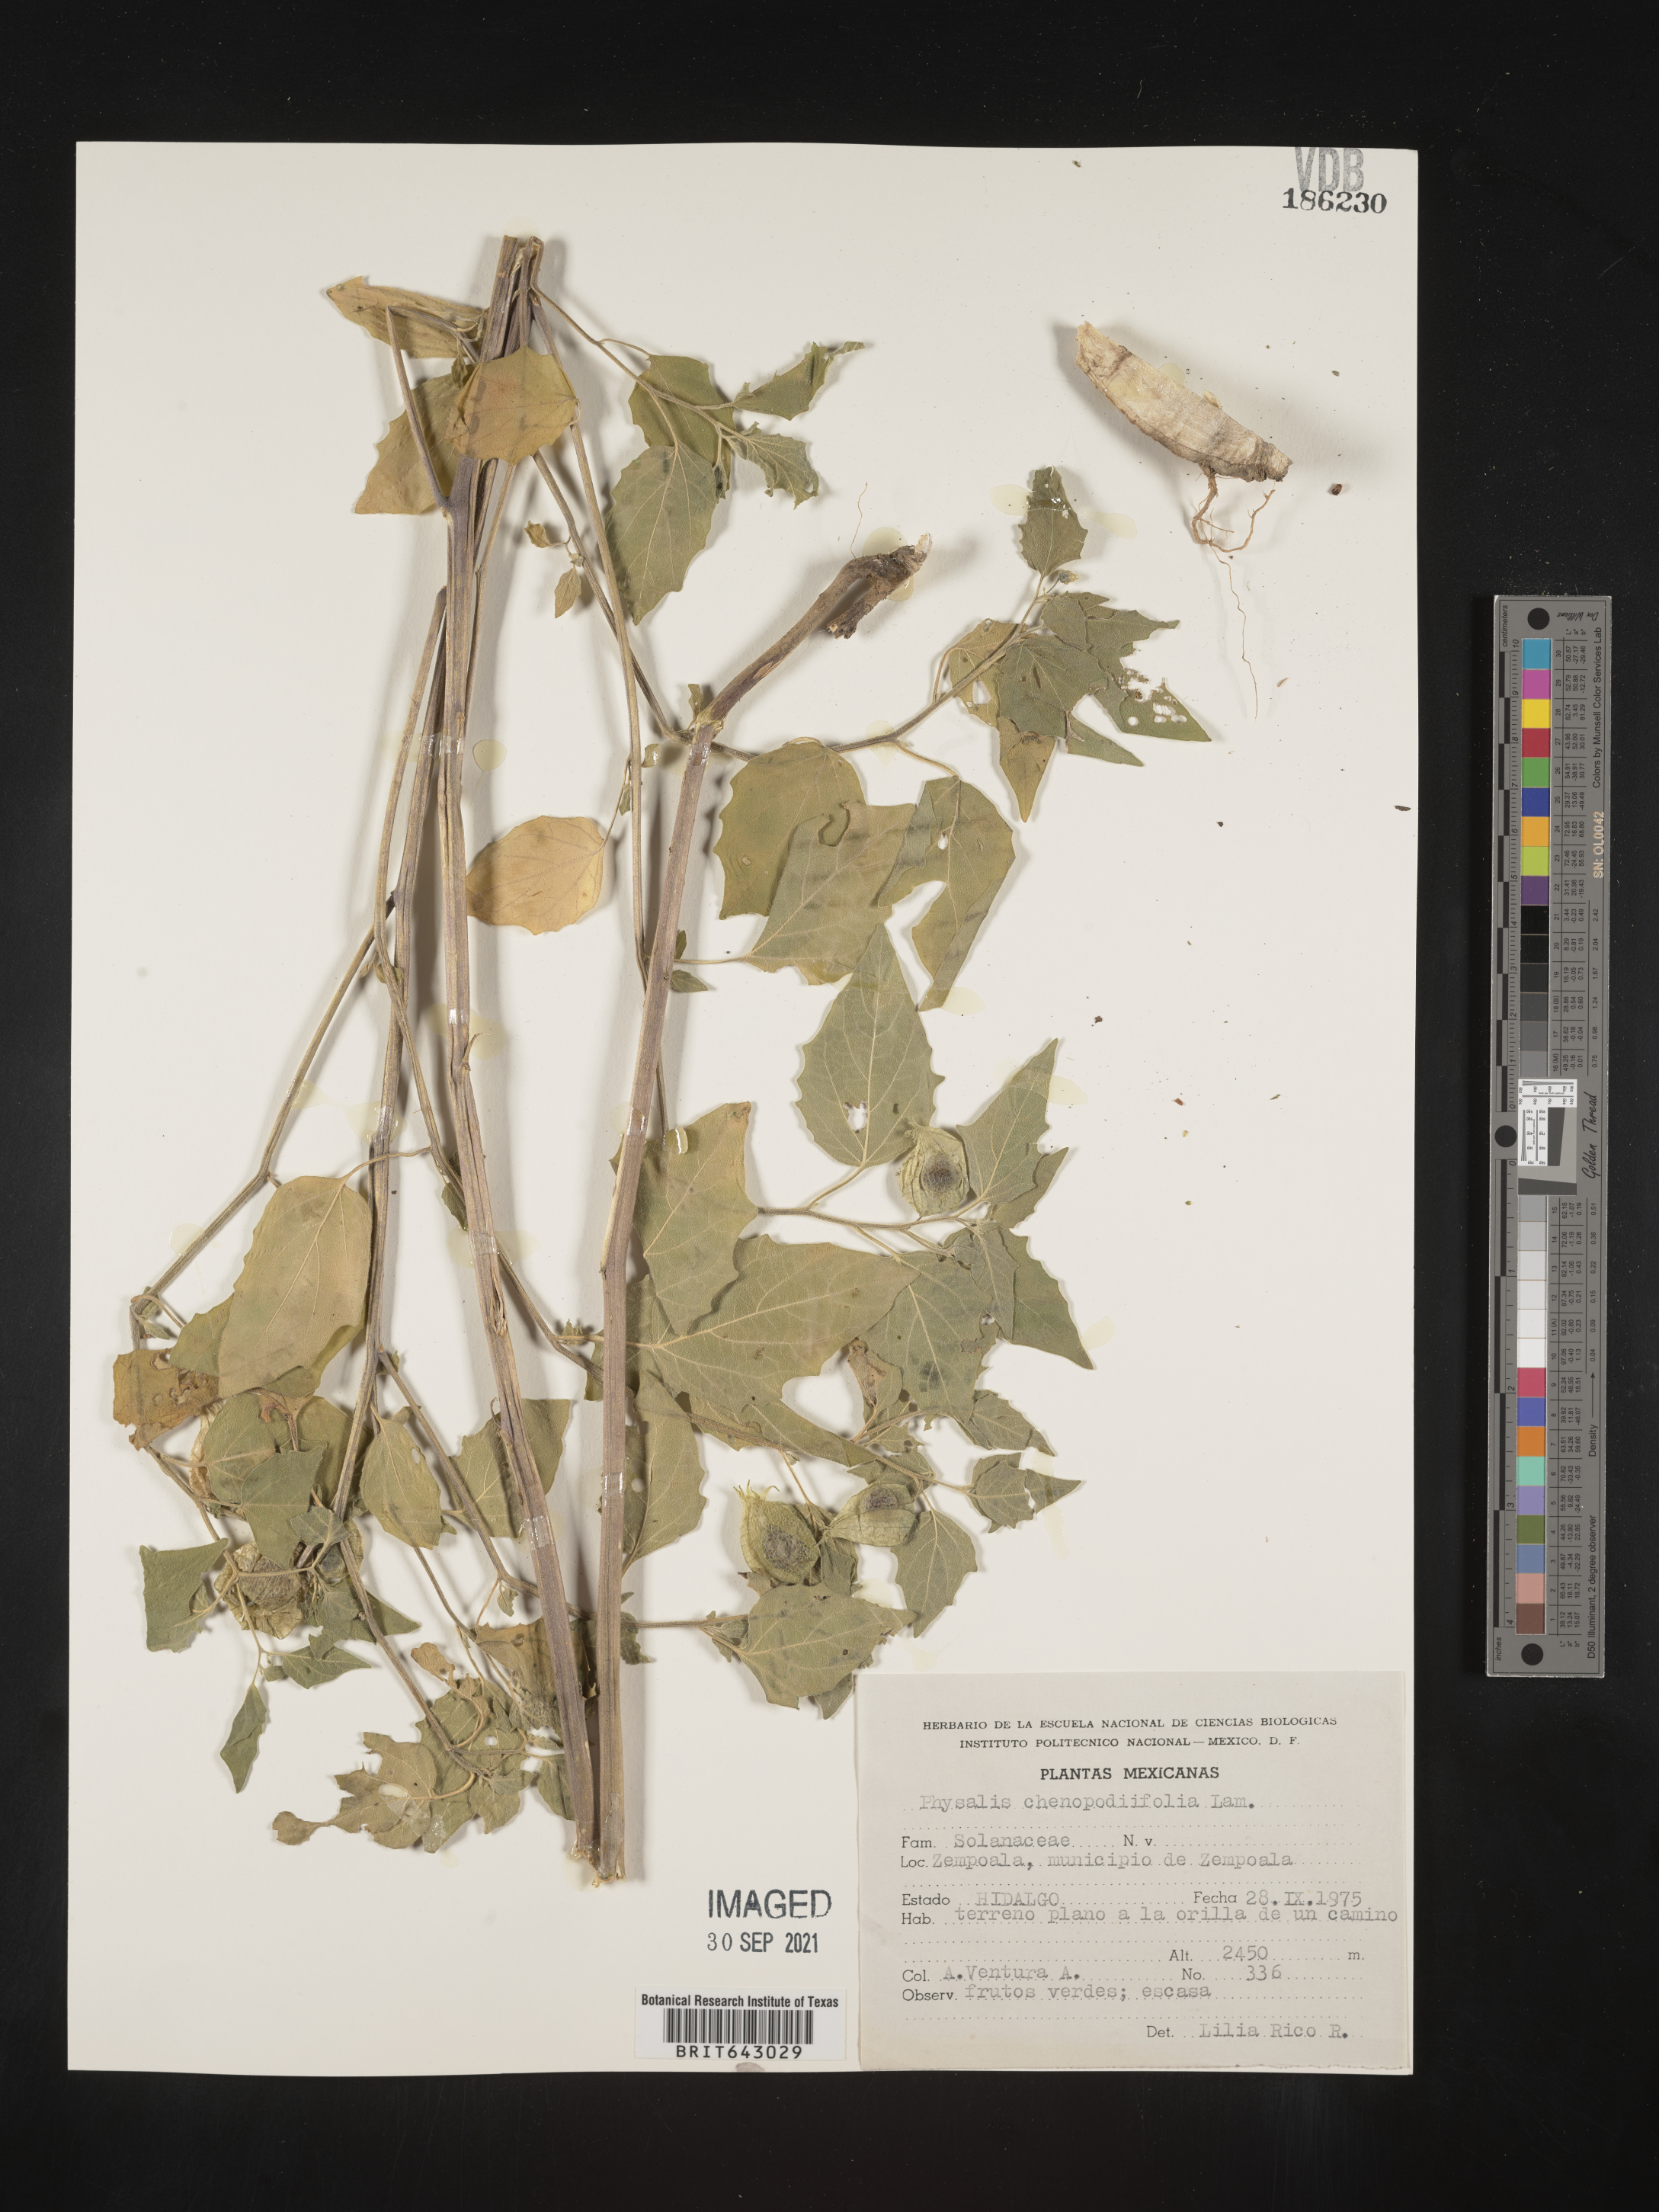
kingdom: Plantae
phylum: Tracheophyta
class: Magnoliopsida
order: Solanales
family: Solanaceae
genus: Physalis
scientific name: Physalis
